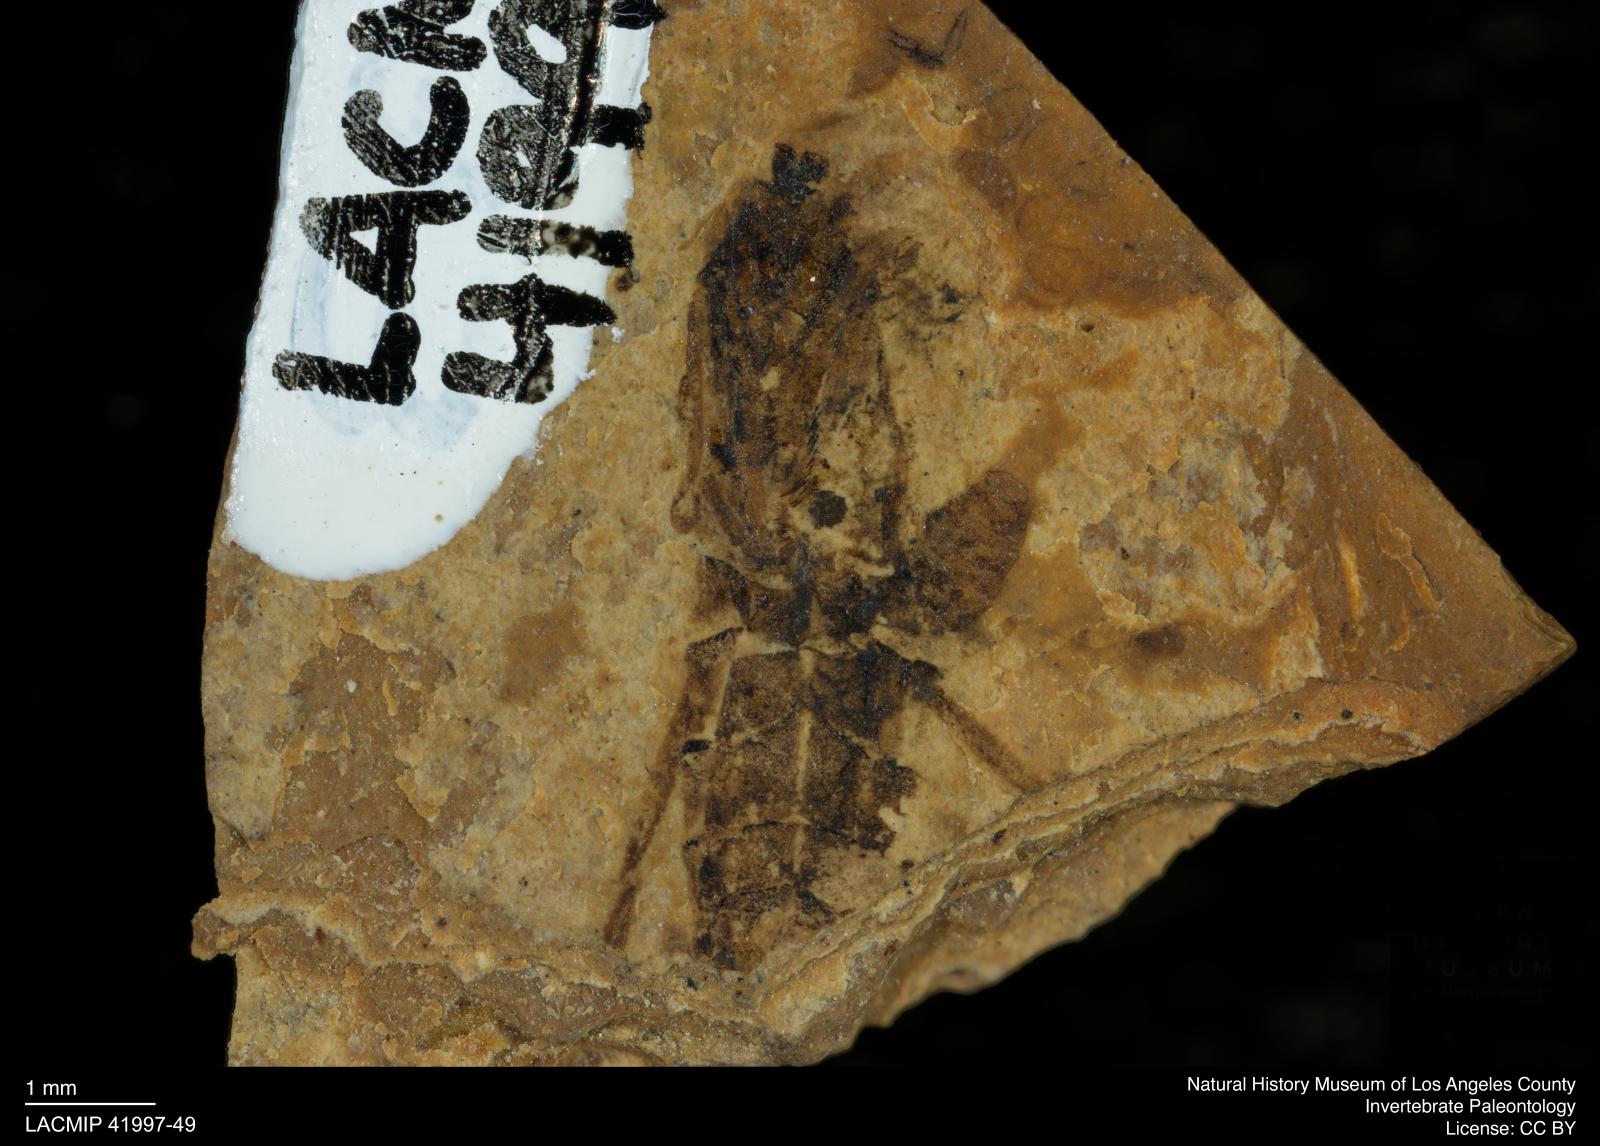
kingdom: Animalia
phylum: Arthropoda
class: Insecta
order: Hemiptera
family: Notonectidae
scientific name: Notonectidae
